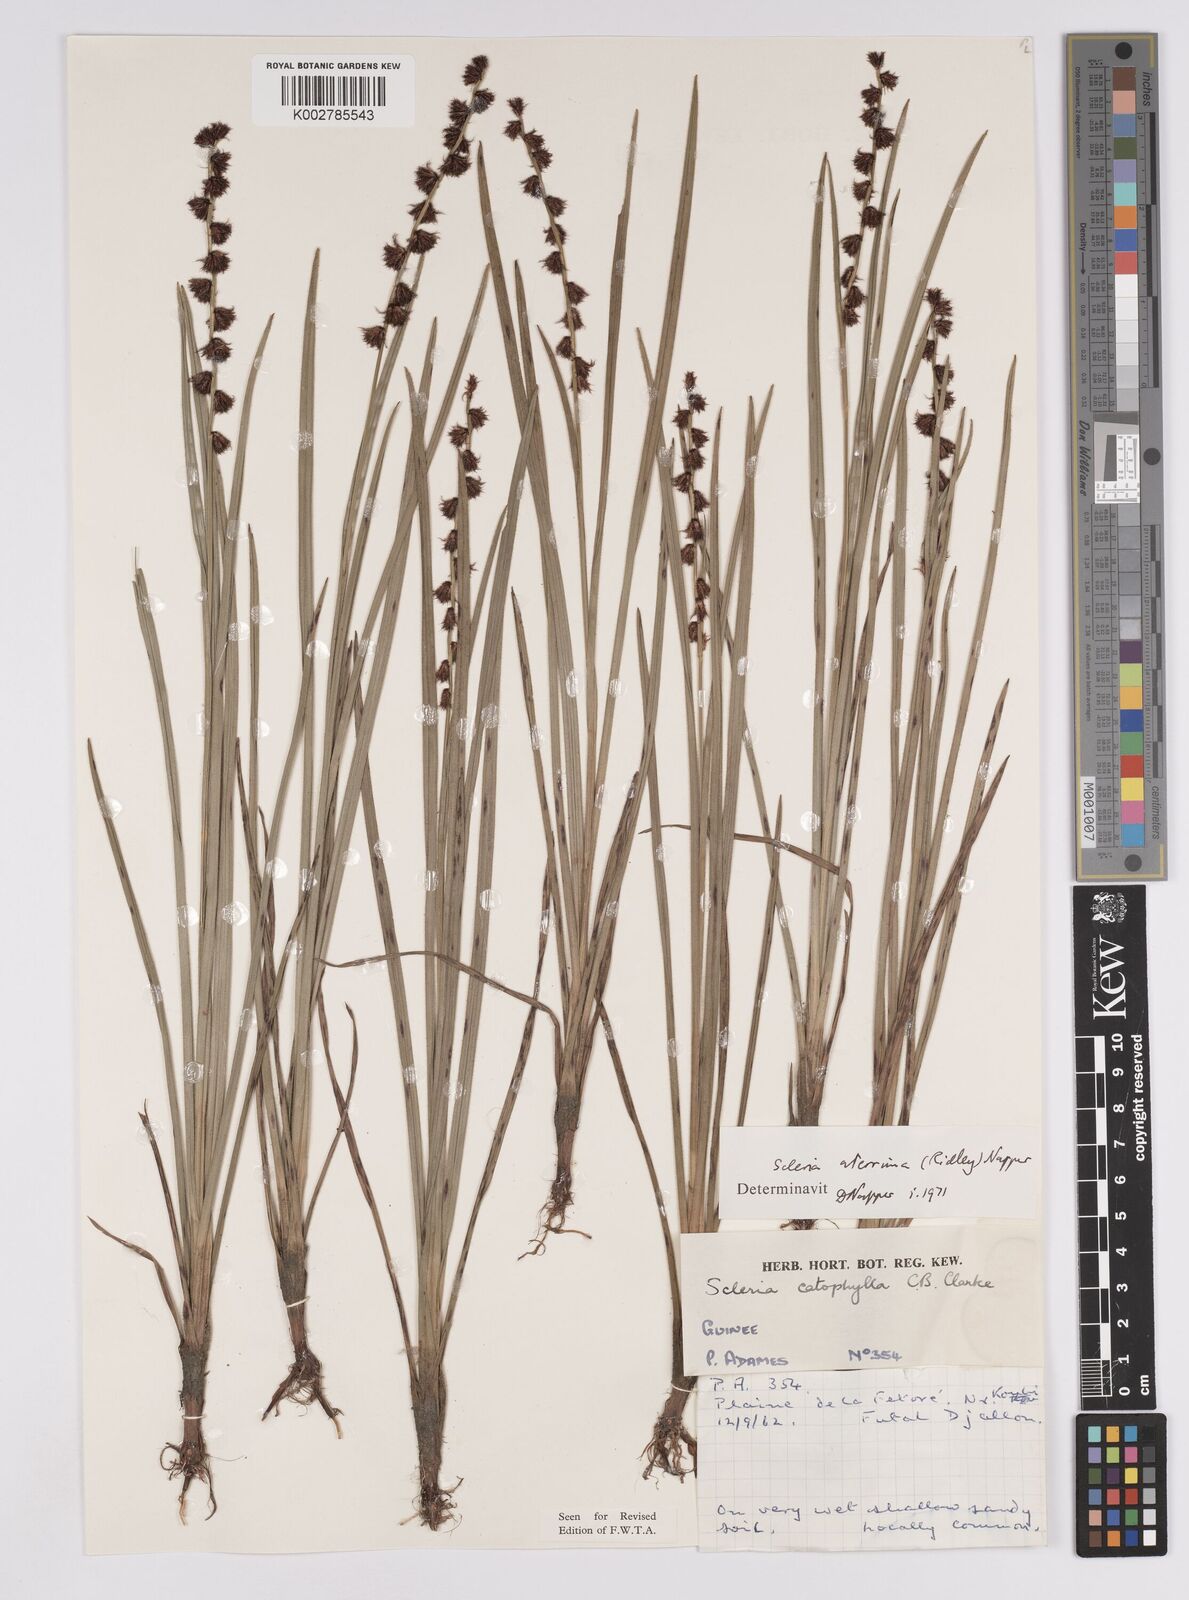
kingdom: Plantae
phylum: Tracheophyta
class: Liliopsida
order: Poales
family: Cyperaceae
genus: Scleria
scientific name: Scleria catophylla
